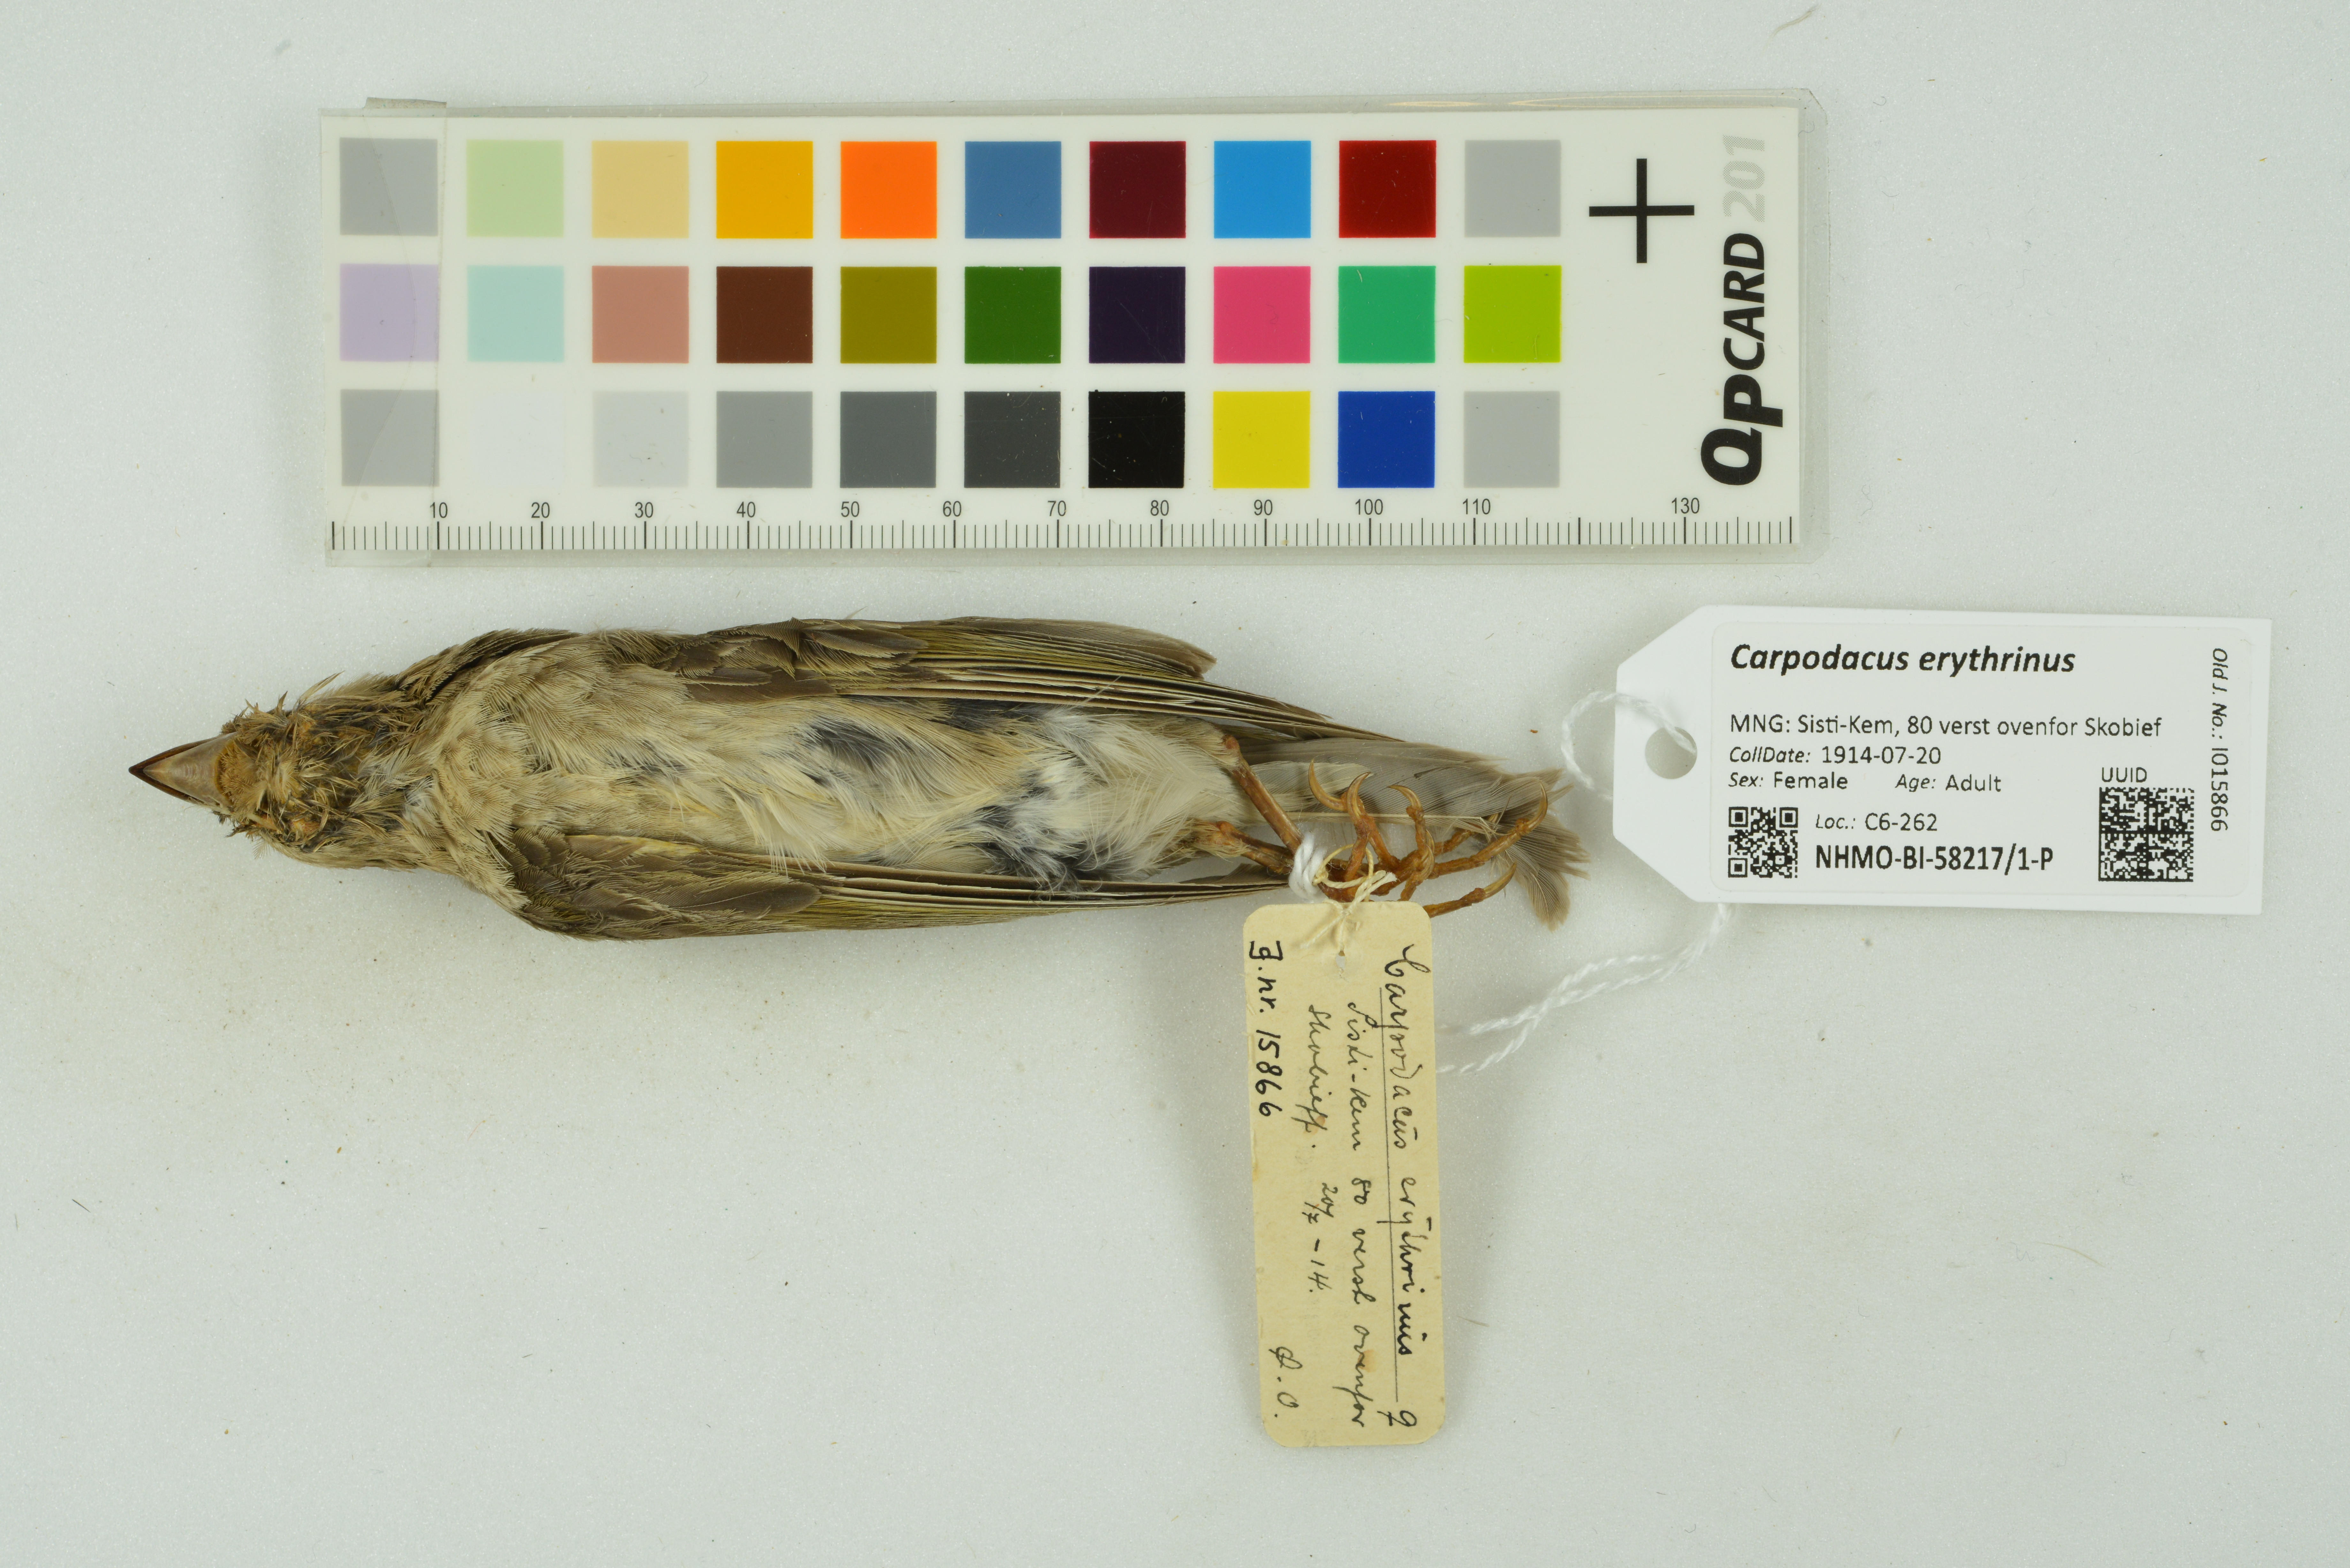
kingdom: Animalia
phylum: Chordata
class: Aves
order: Passeriformes
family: Fringillidae
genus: Carpodacus
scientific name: Carpodacus erythrinus
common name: Common rosefinch
